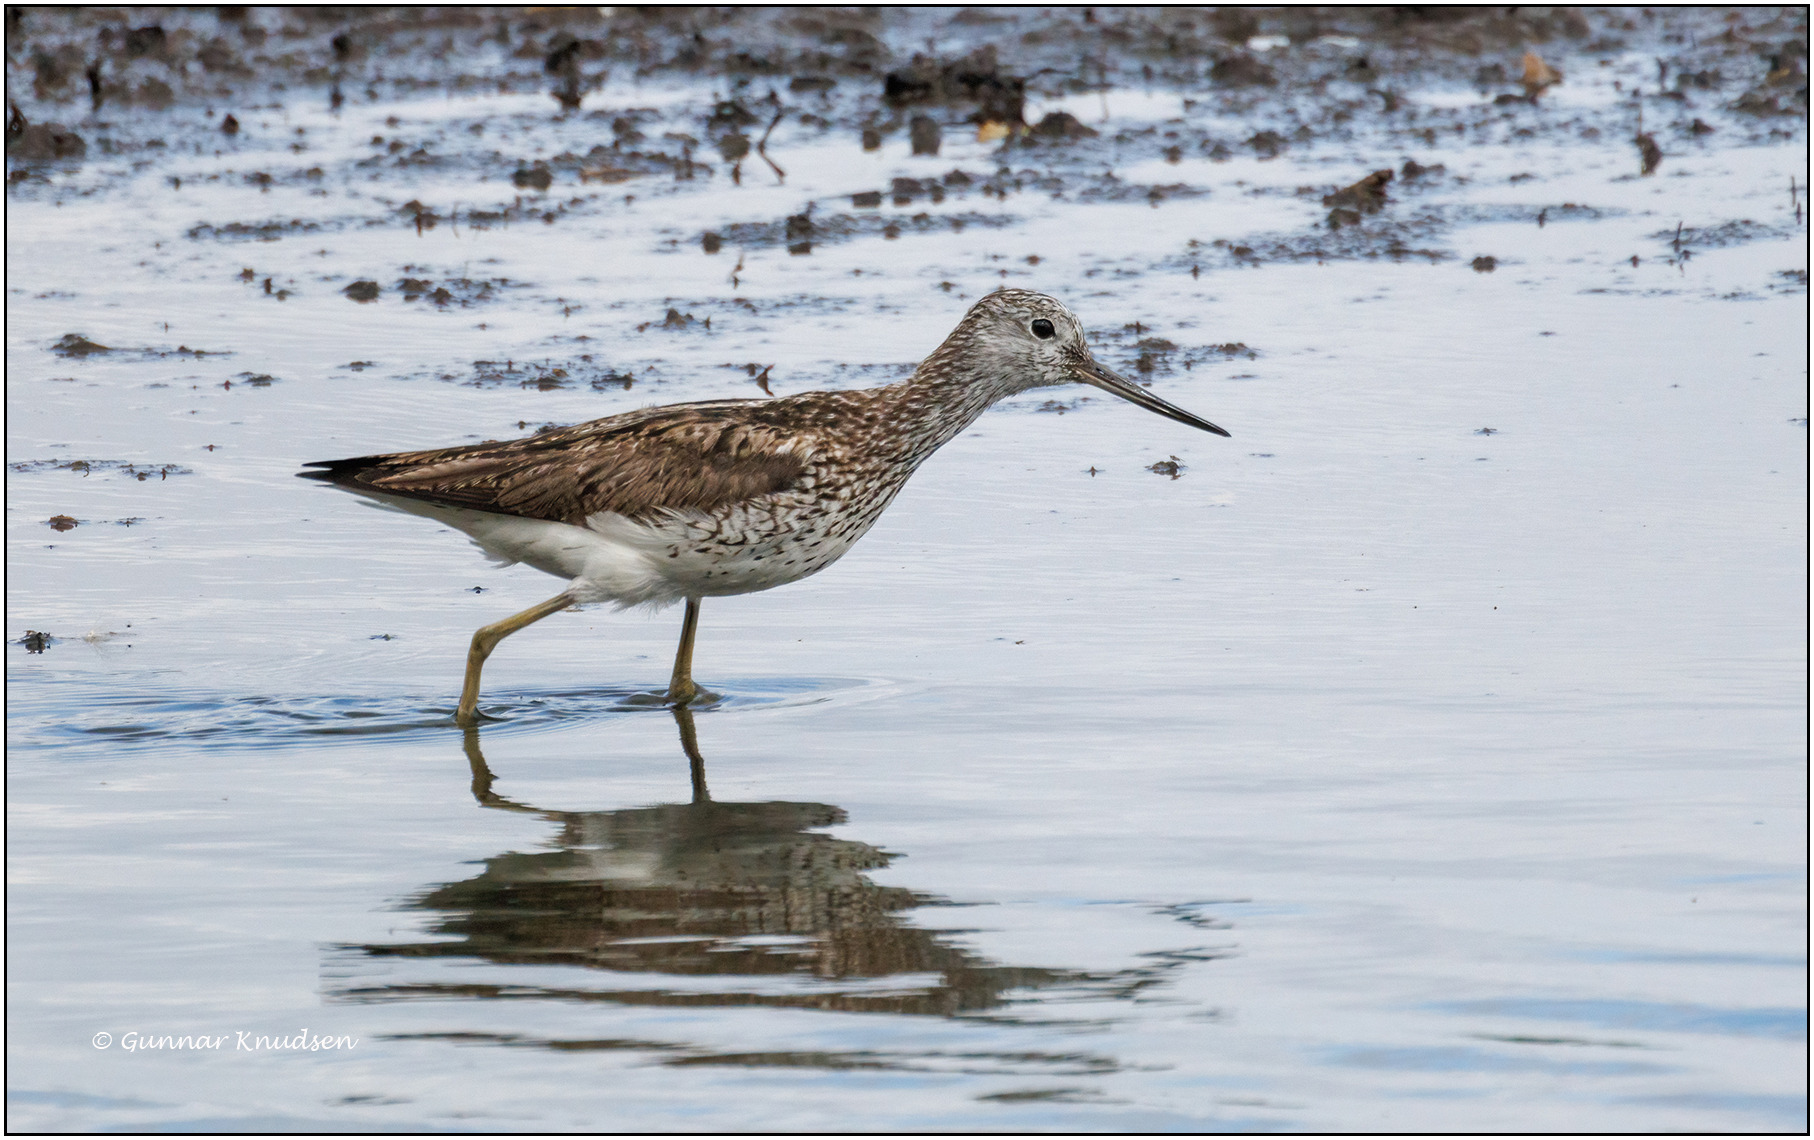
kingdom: Animalia
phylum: Chordata
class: Aves
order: Charadriiformes
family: Scolopacidae
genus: Tringa
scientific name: Tringa nebularia
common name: Hvidklire
